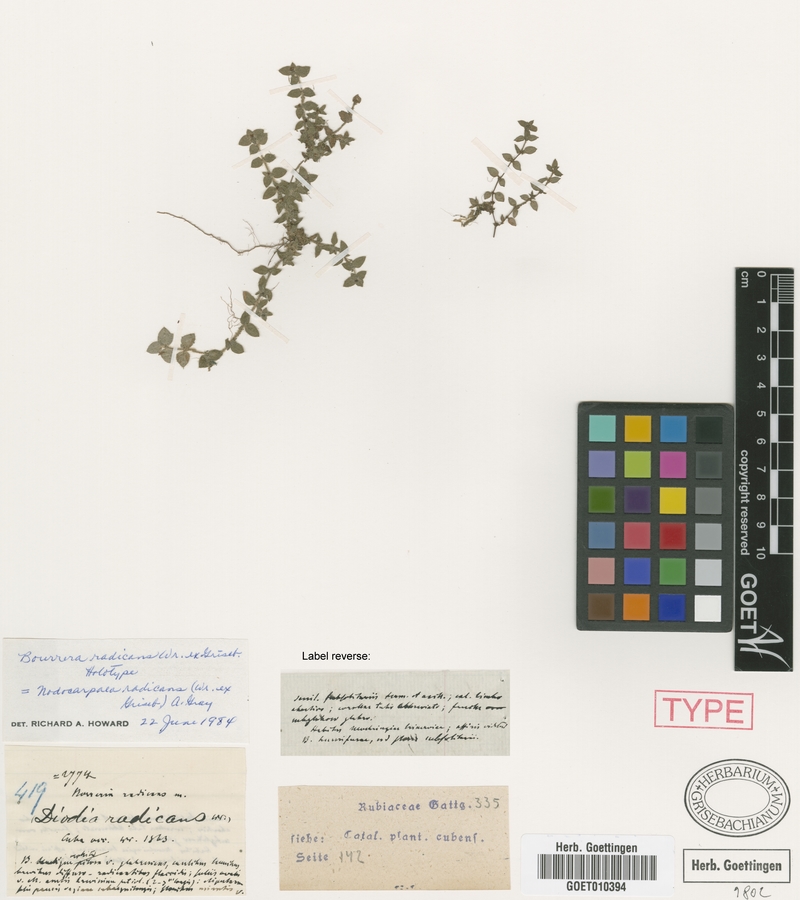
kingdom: Plantae
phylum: Tracheophyta
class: Magnoliopsida
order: Gentianales
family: Rubiaceae
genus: Nodocarpaea
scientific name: Nodocarpaea radicans
